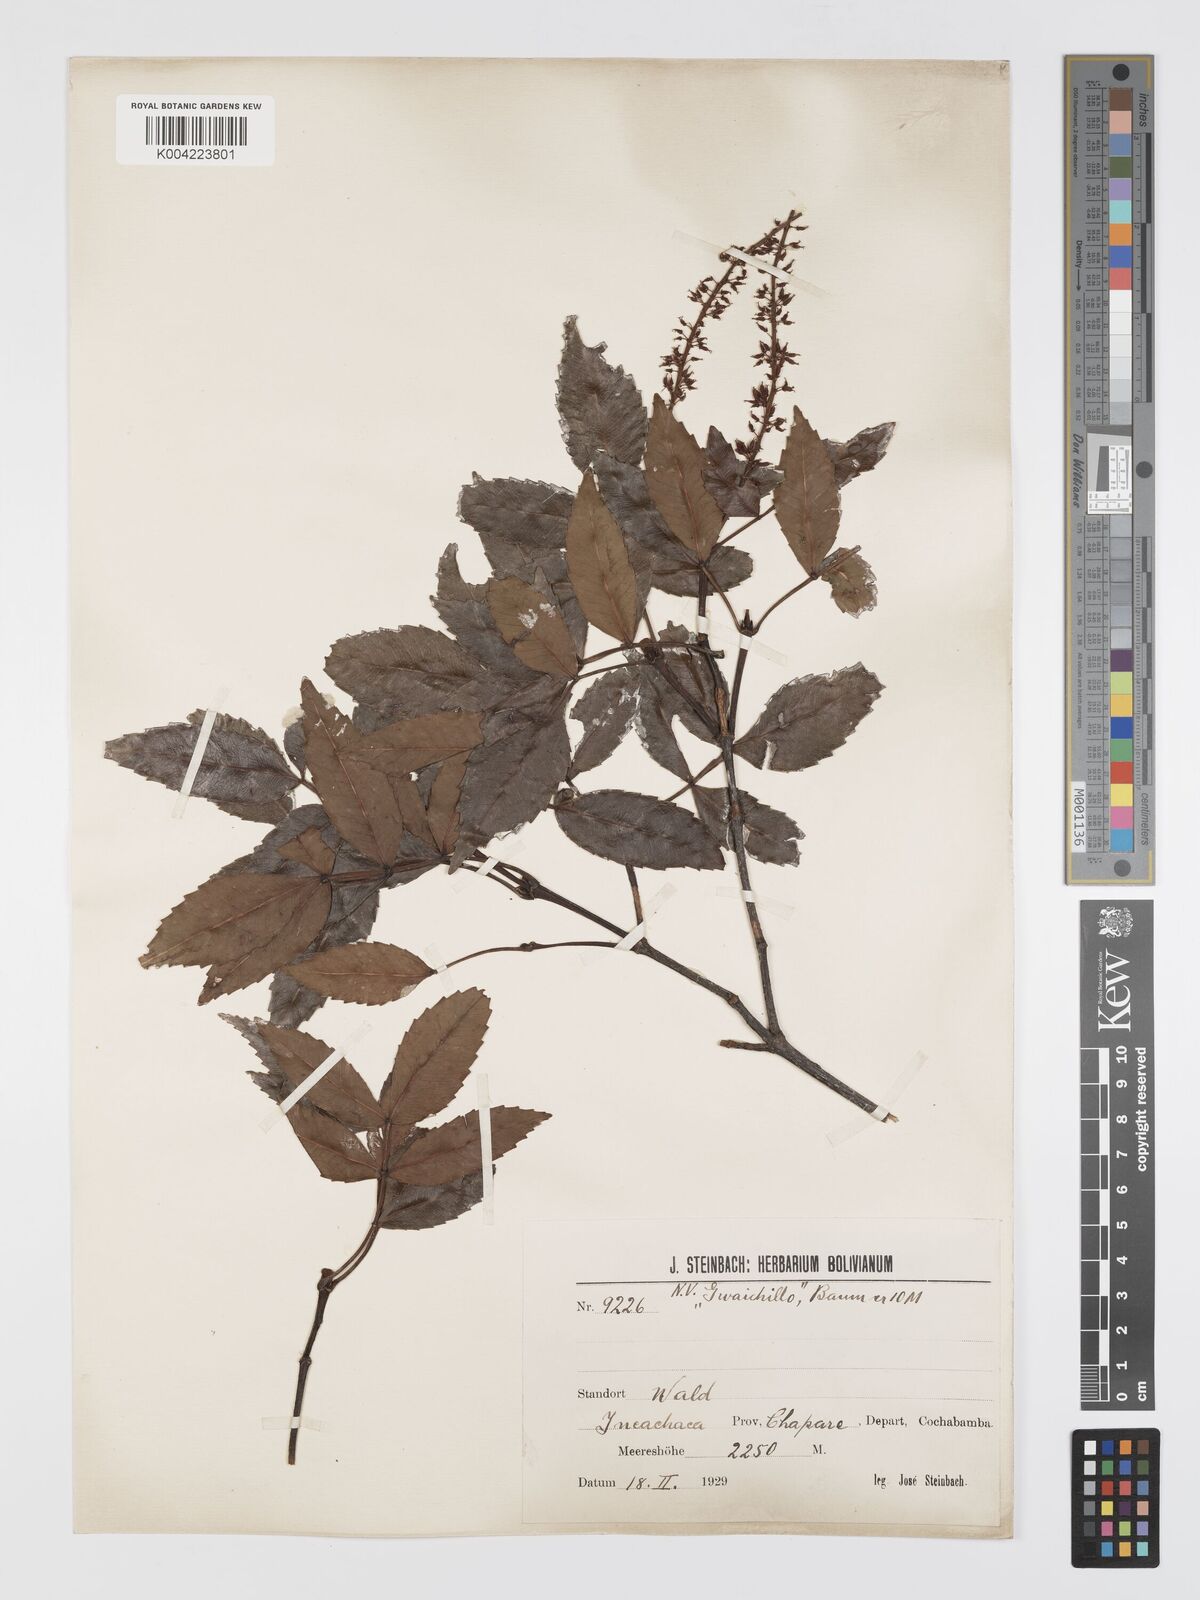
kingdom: Plantae
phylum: Tracheophyta
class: Magnoliopsida
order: Oxalidales
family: Cunoniaceae
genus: Weinmannia
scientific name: Weinmannia boliviensis
